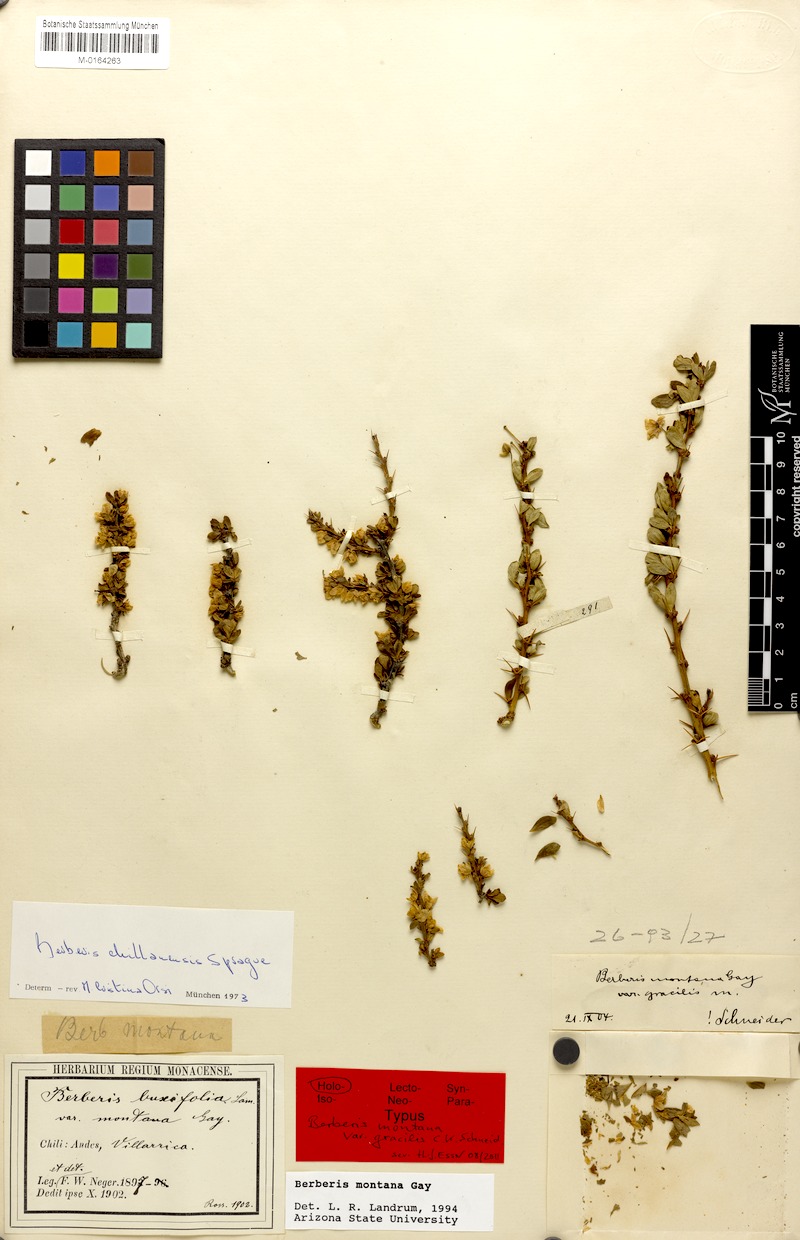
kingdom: Plantae
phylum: Tracheophyta
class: Magnoliopsida
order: Ranunculales
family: Berberidaceae
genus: Berberis
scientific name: Berberis montana
